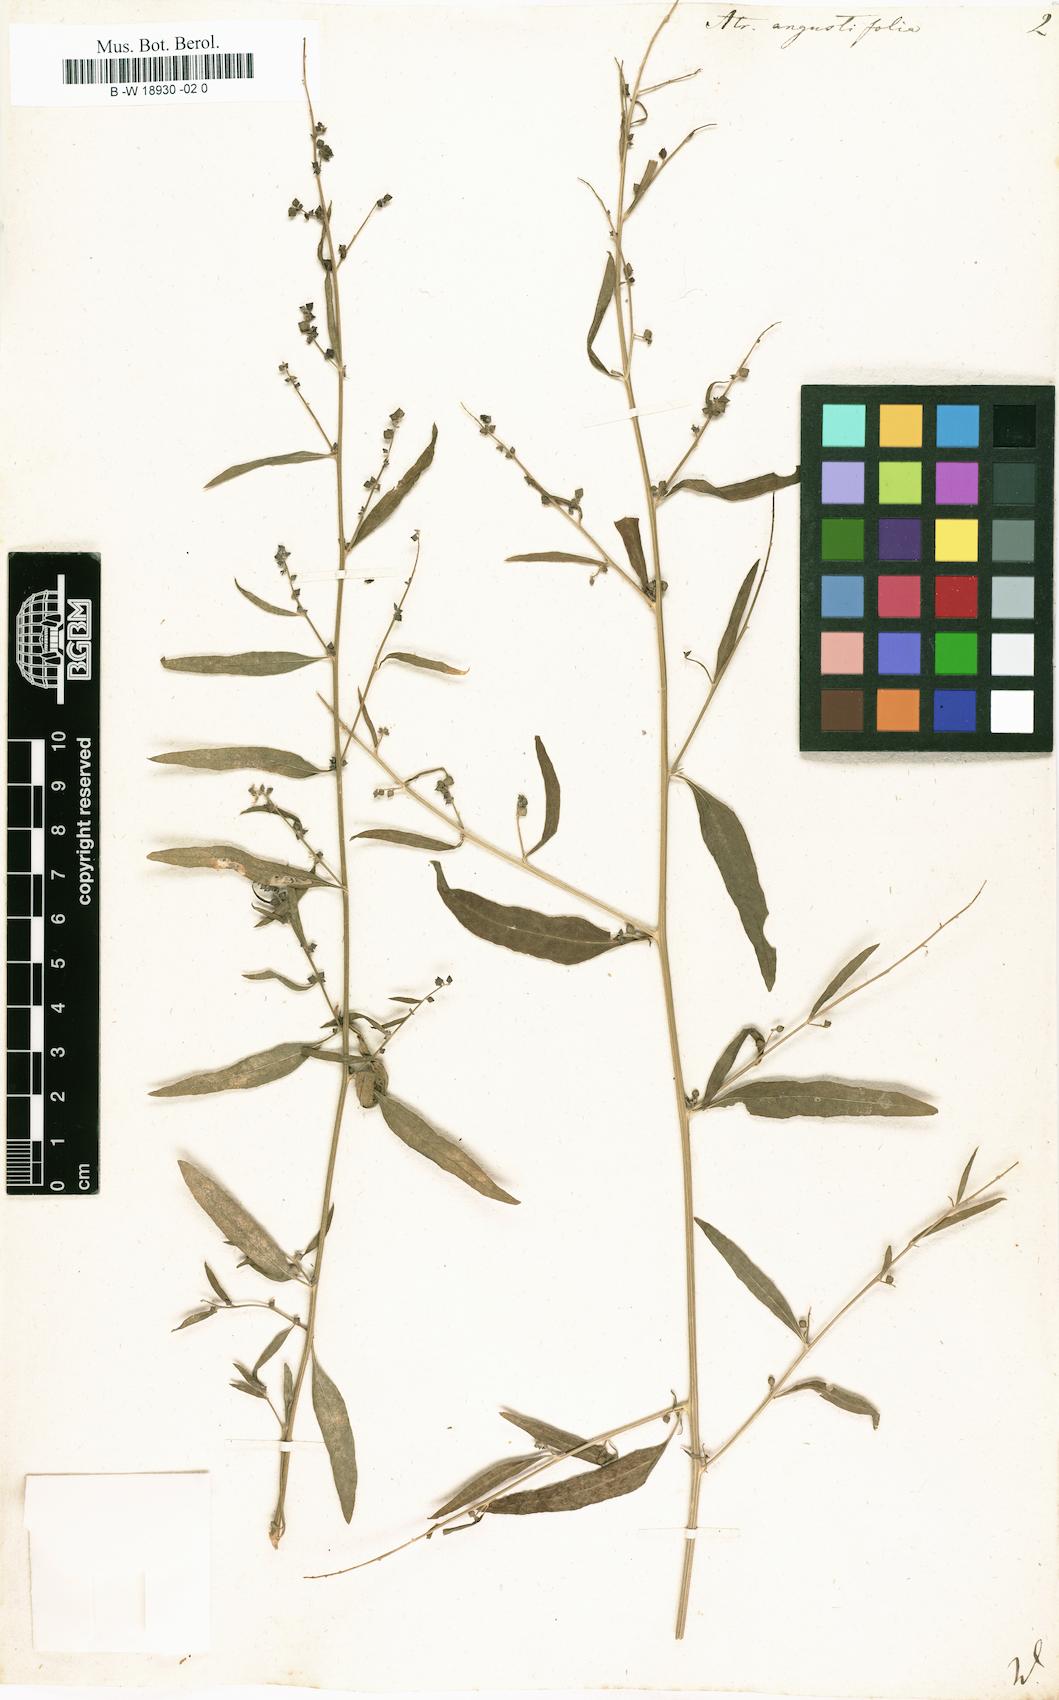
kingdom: Plantae
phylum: Tracheophyta
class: Magnoliopsida
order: Caryophyllales
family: Amaranthaceae
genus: Atriplex
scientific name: Atriplex patula
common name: Common orache
